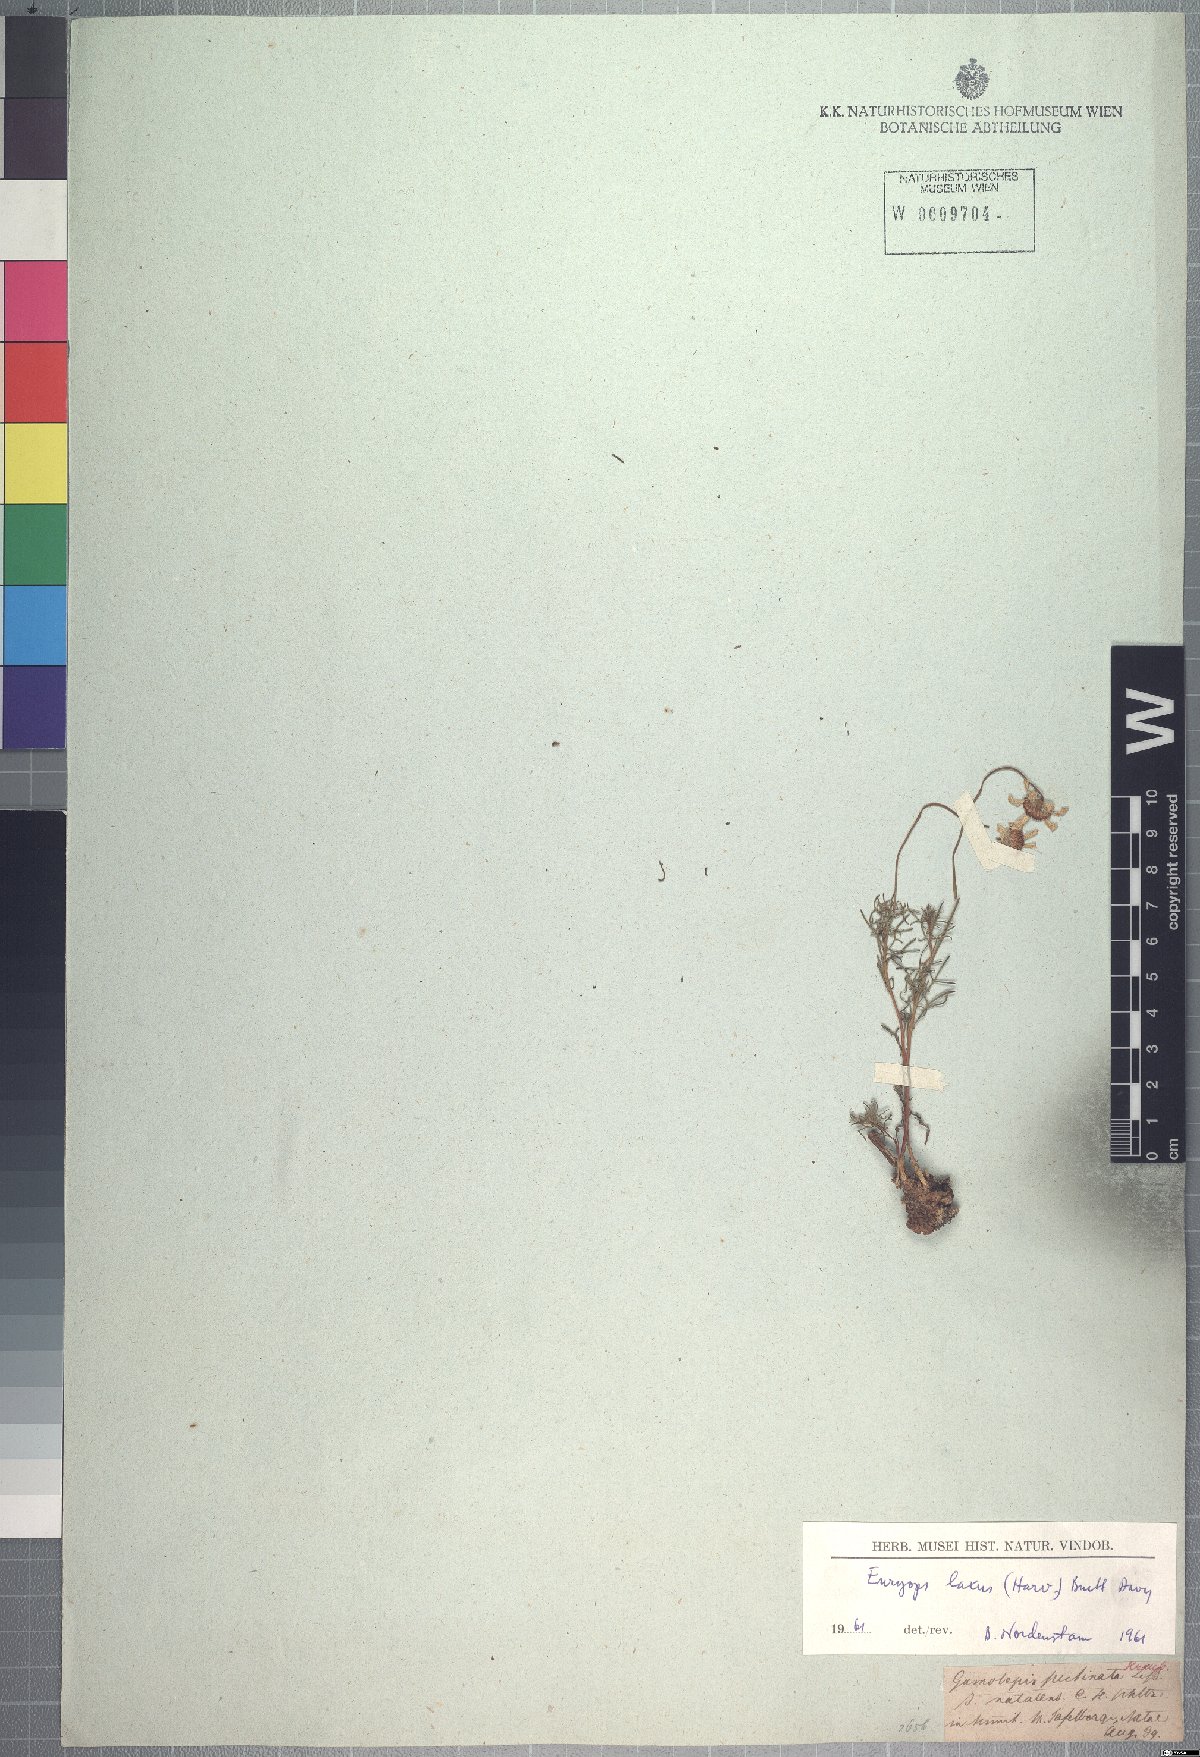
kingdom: Plantae
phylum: Tracheophyta
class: Magnoliopsida
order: Asterales
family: Asteraceae
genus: Euryops
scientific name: Euryops laxus
